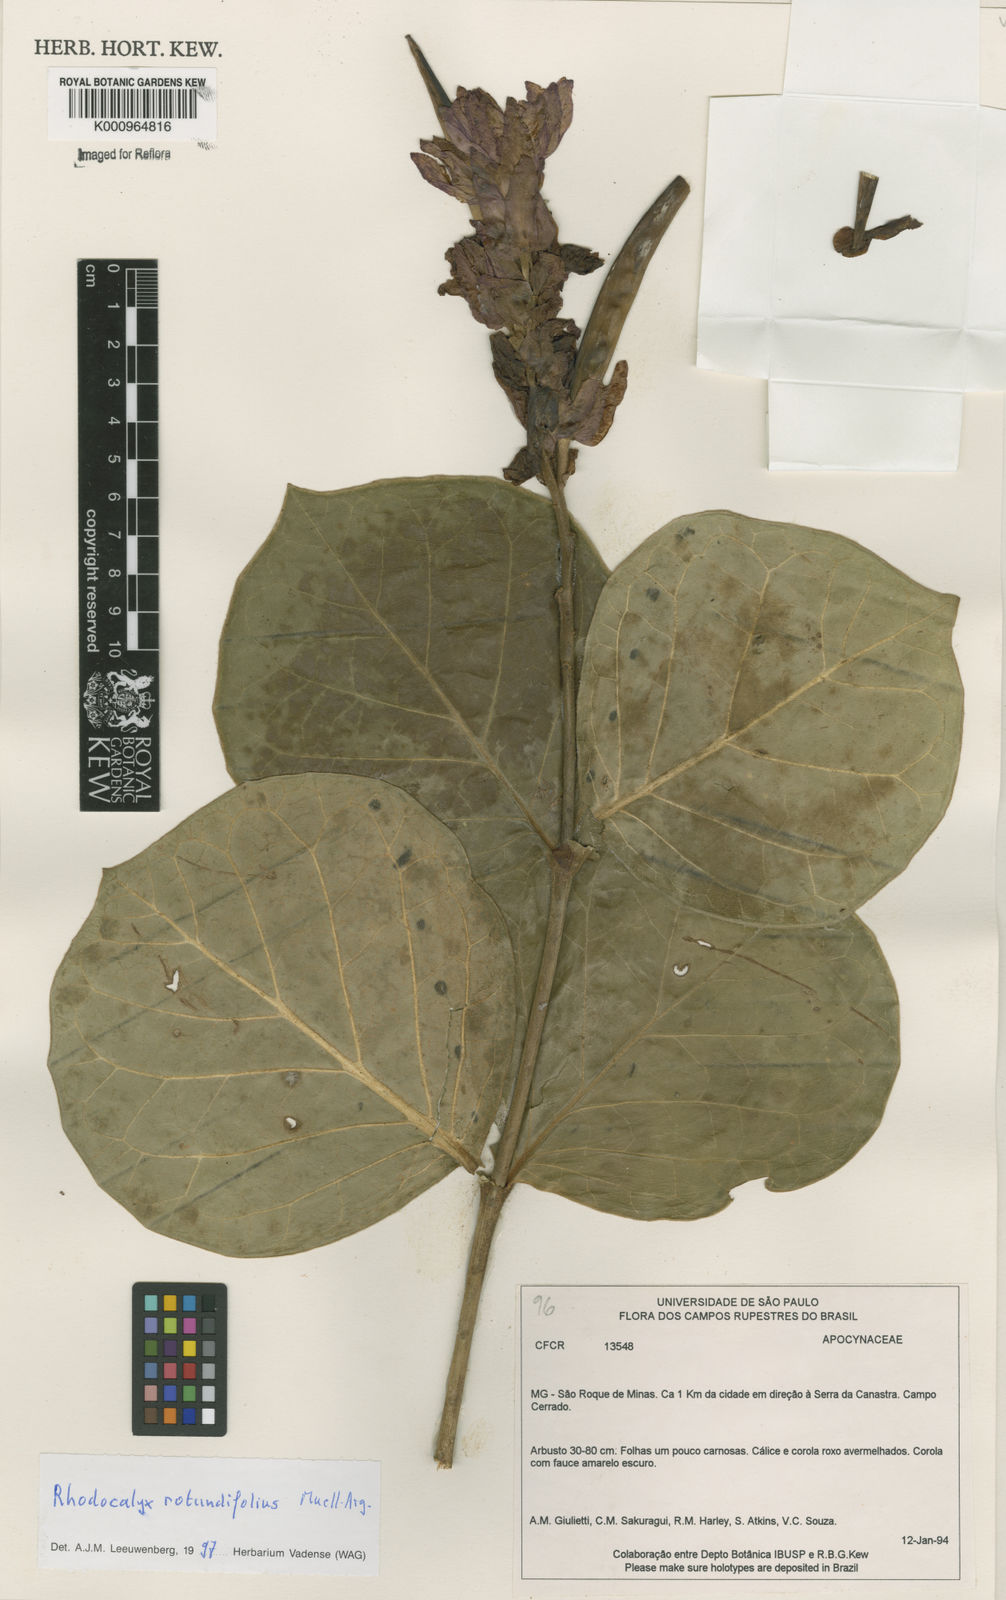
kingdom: Plantae
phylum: Tracheophyta
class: Magnoliopsida
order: Gentianales
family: Apocynaceae
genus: Rhodocalyx
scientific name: Rhodocalyx
